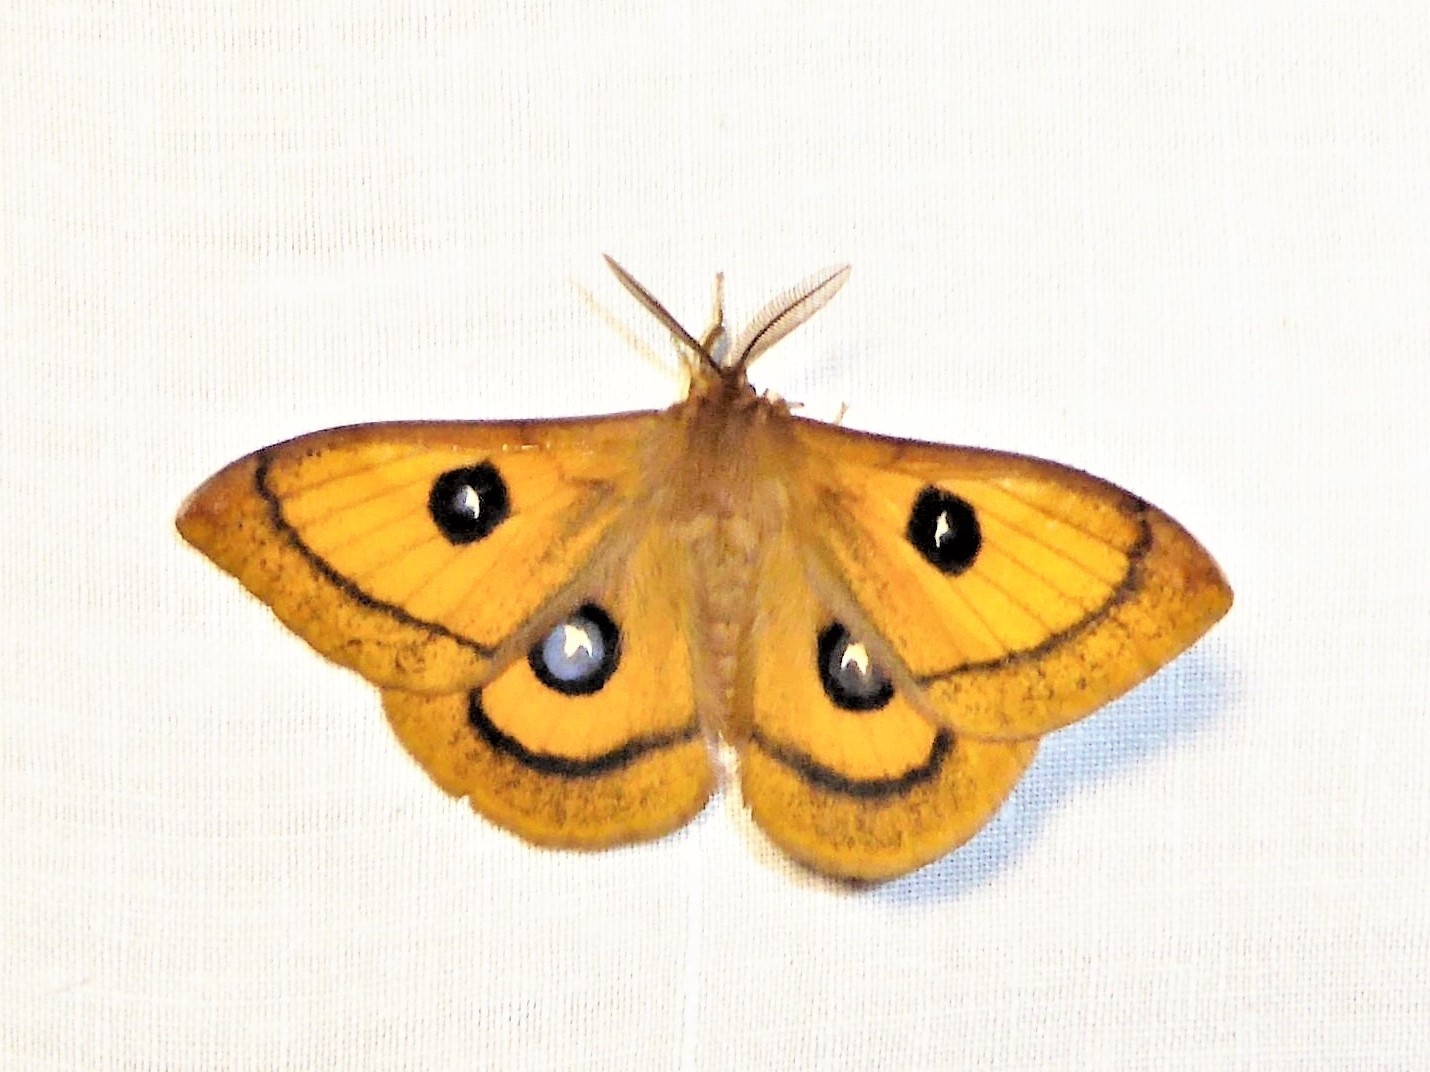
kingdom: Animalia
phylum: Arthropoda
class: Insecta
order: Lepidoptera
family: Saturniidae
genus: Aglia
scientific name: Aglia tau
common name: Tau emperor
